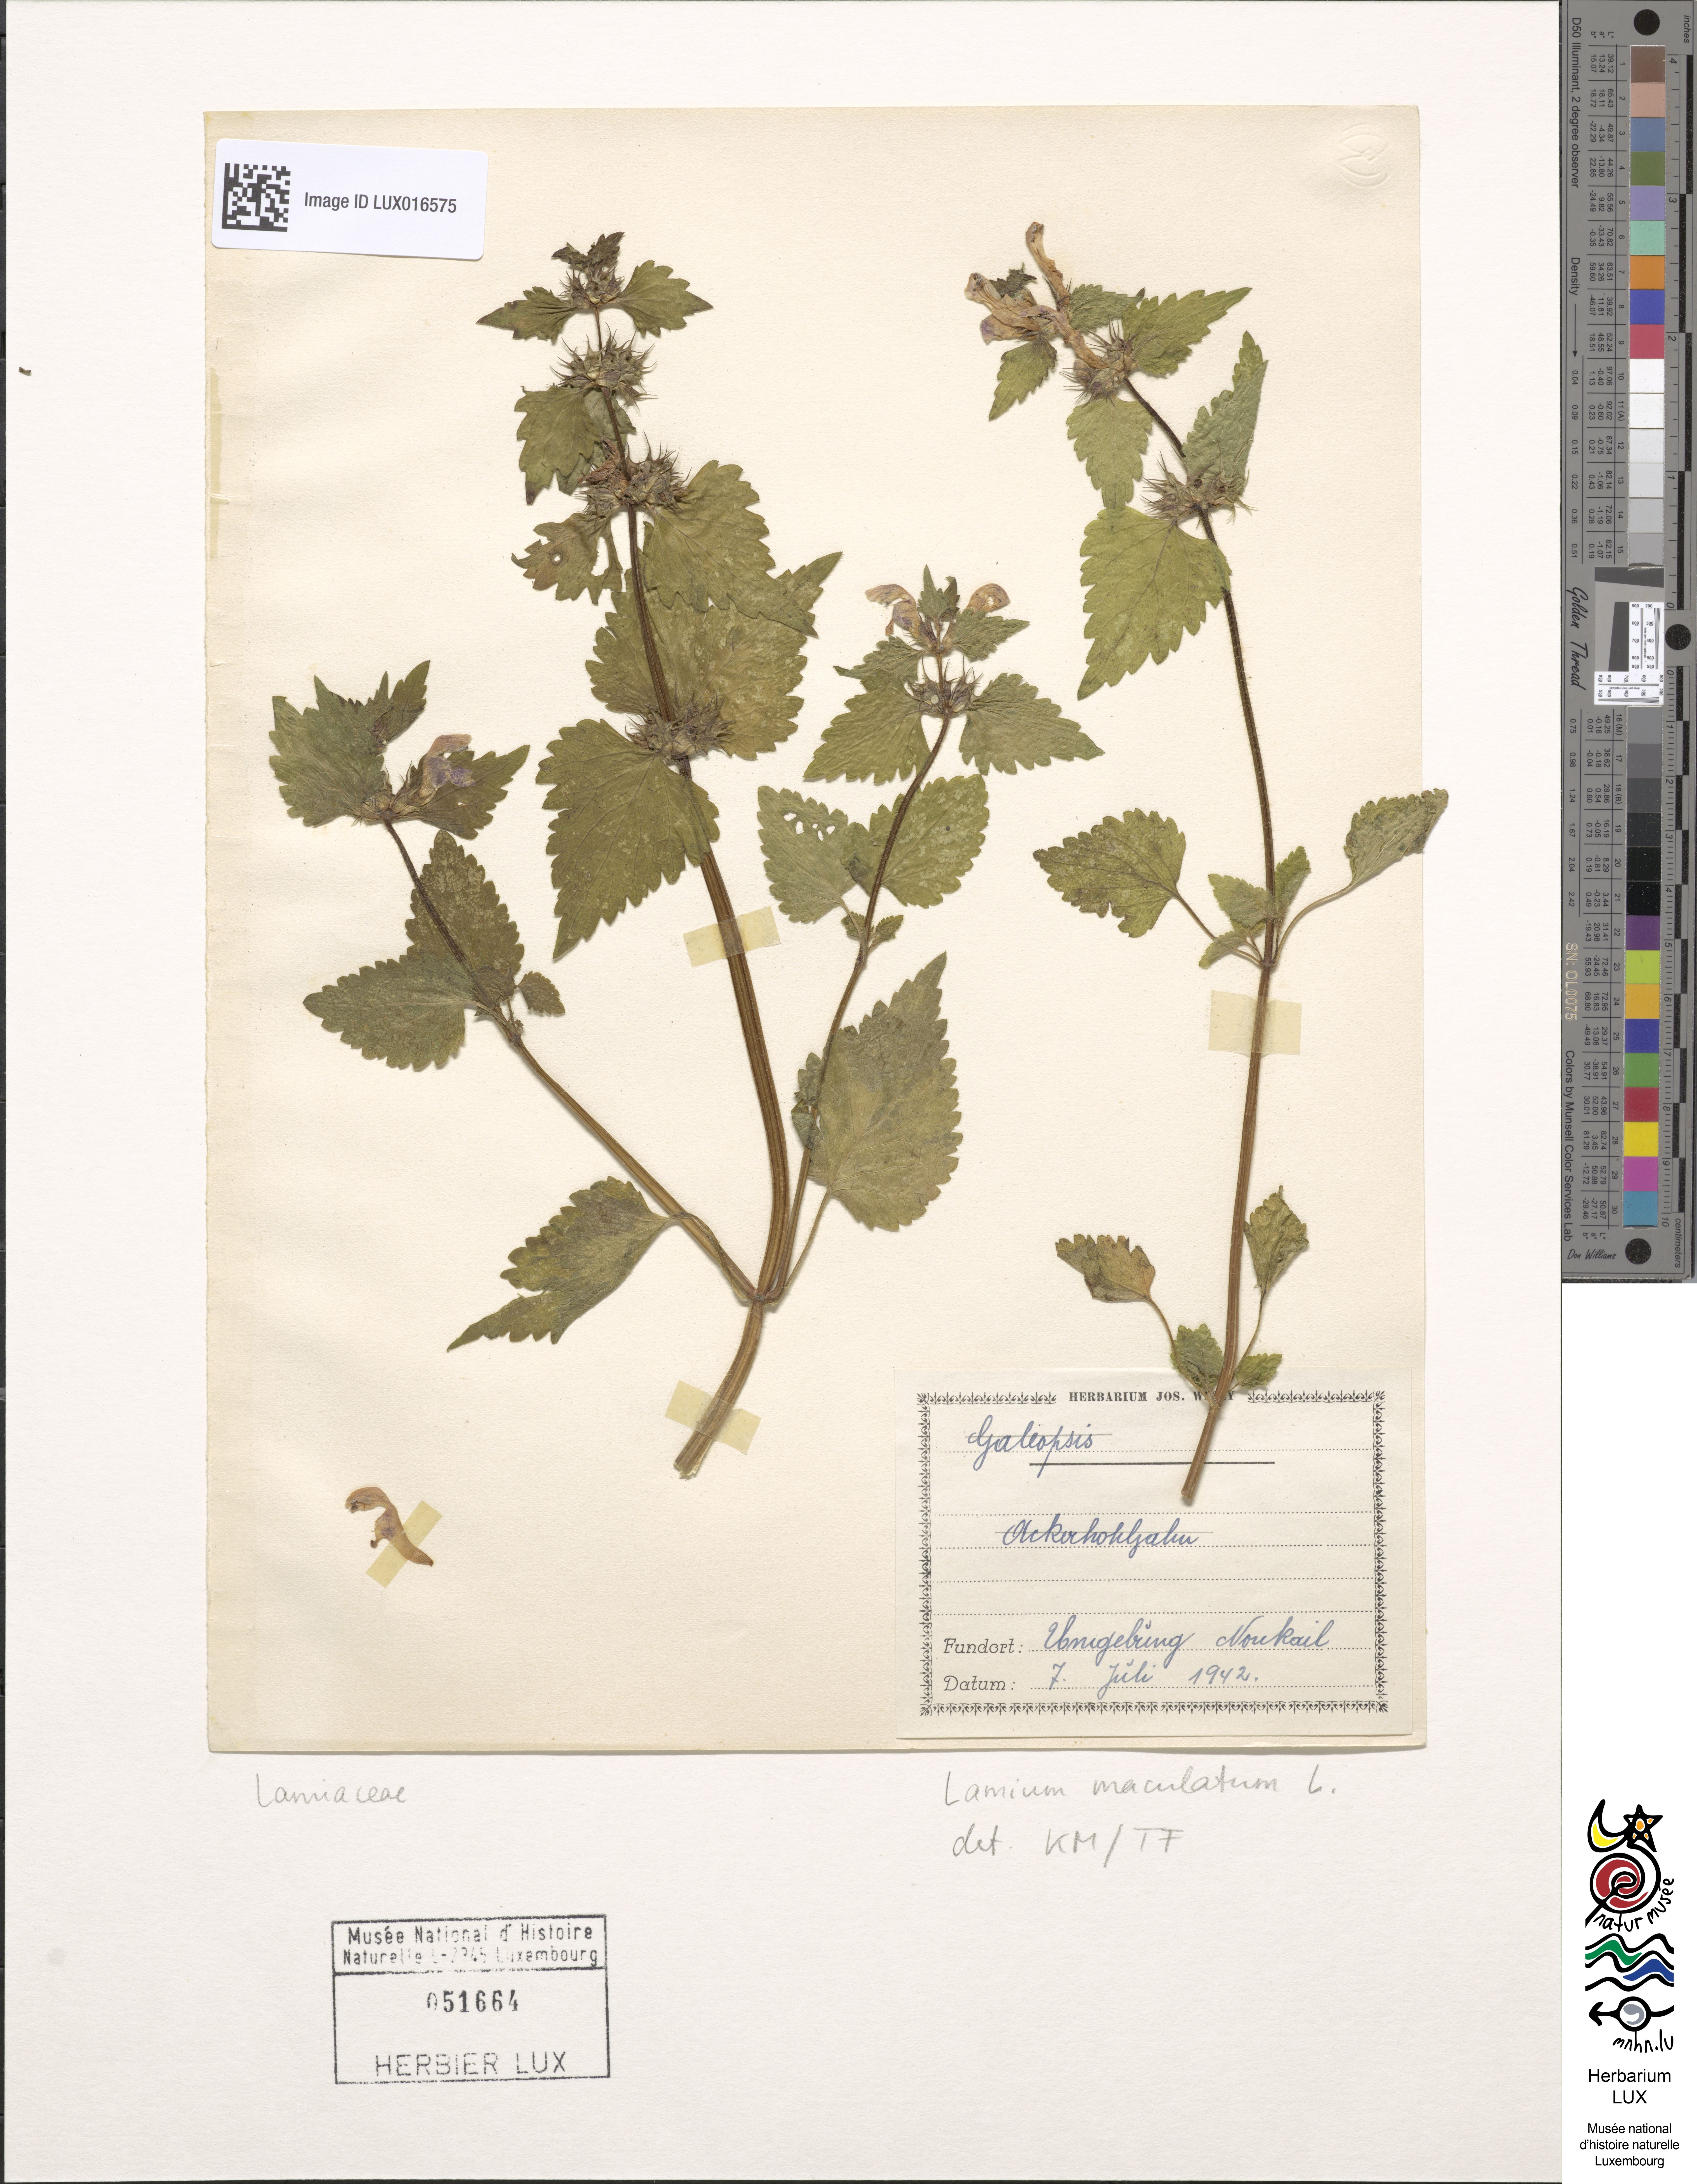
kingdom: Plantae
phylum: Tracheophyta
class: Magnoliopsida
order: Lamiales
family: Lamiaceae
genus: Lamium
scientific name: Lamium maculatum
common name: Spotted dead-nettle
